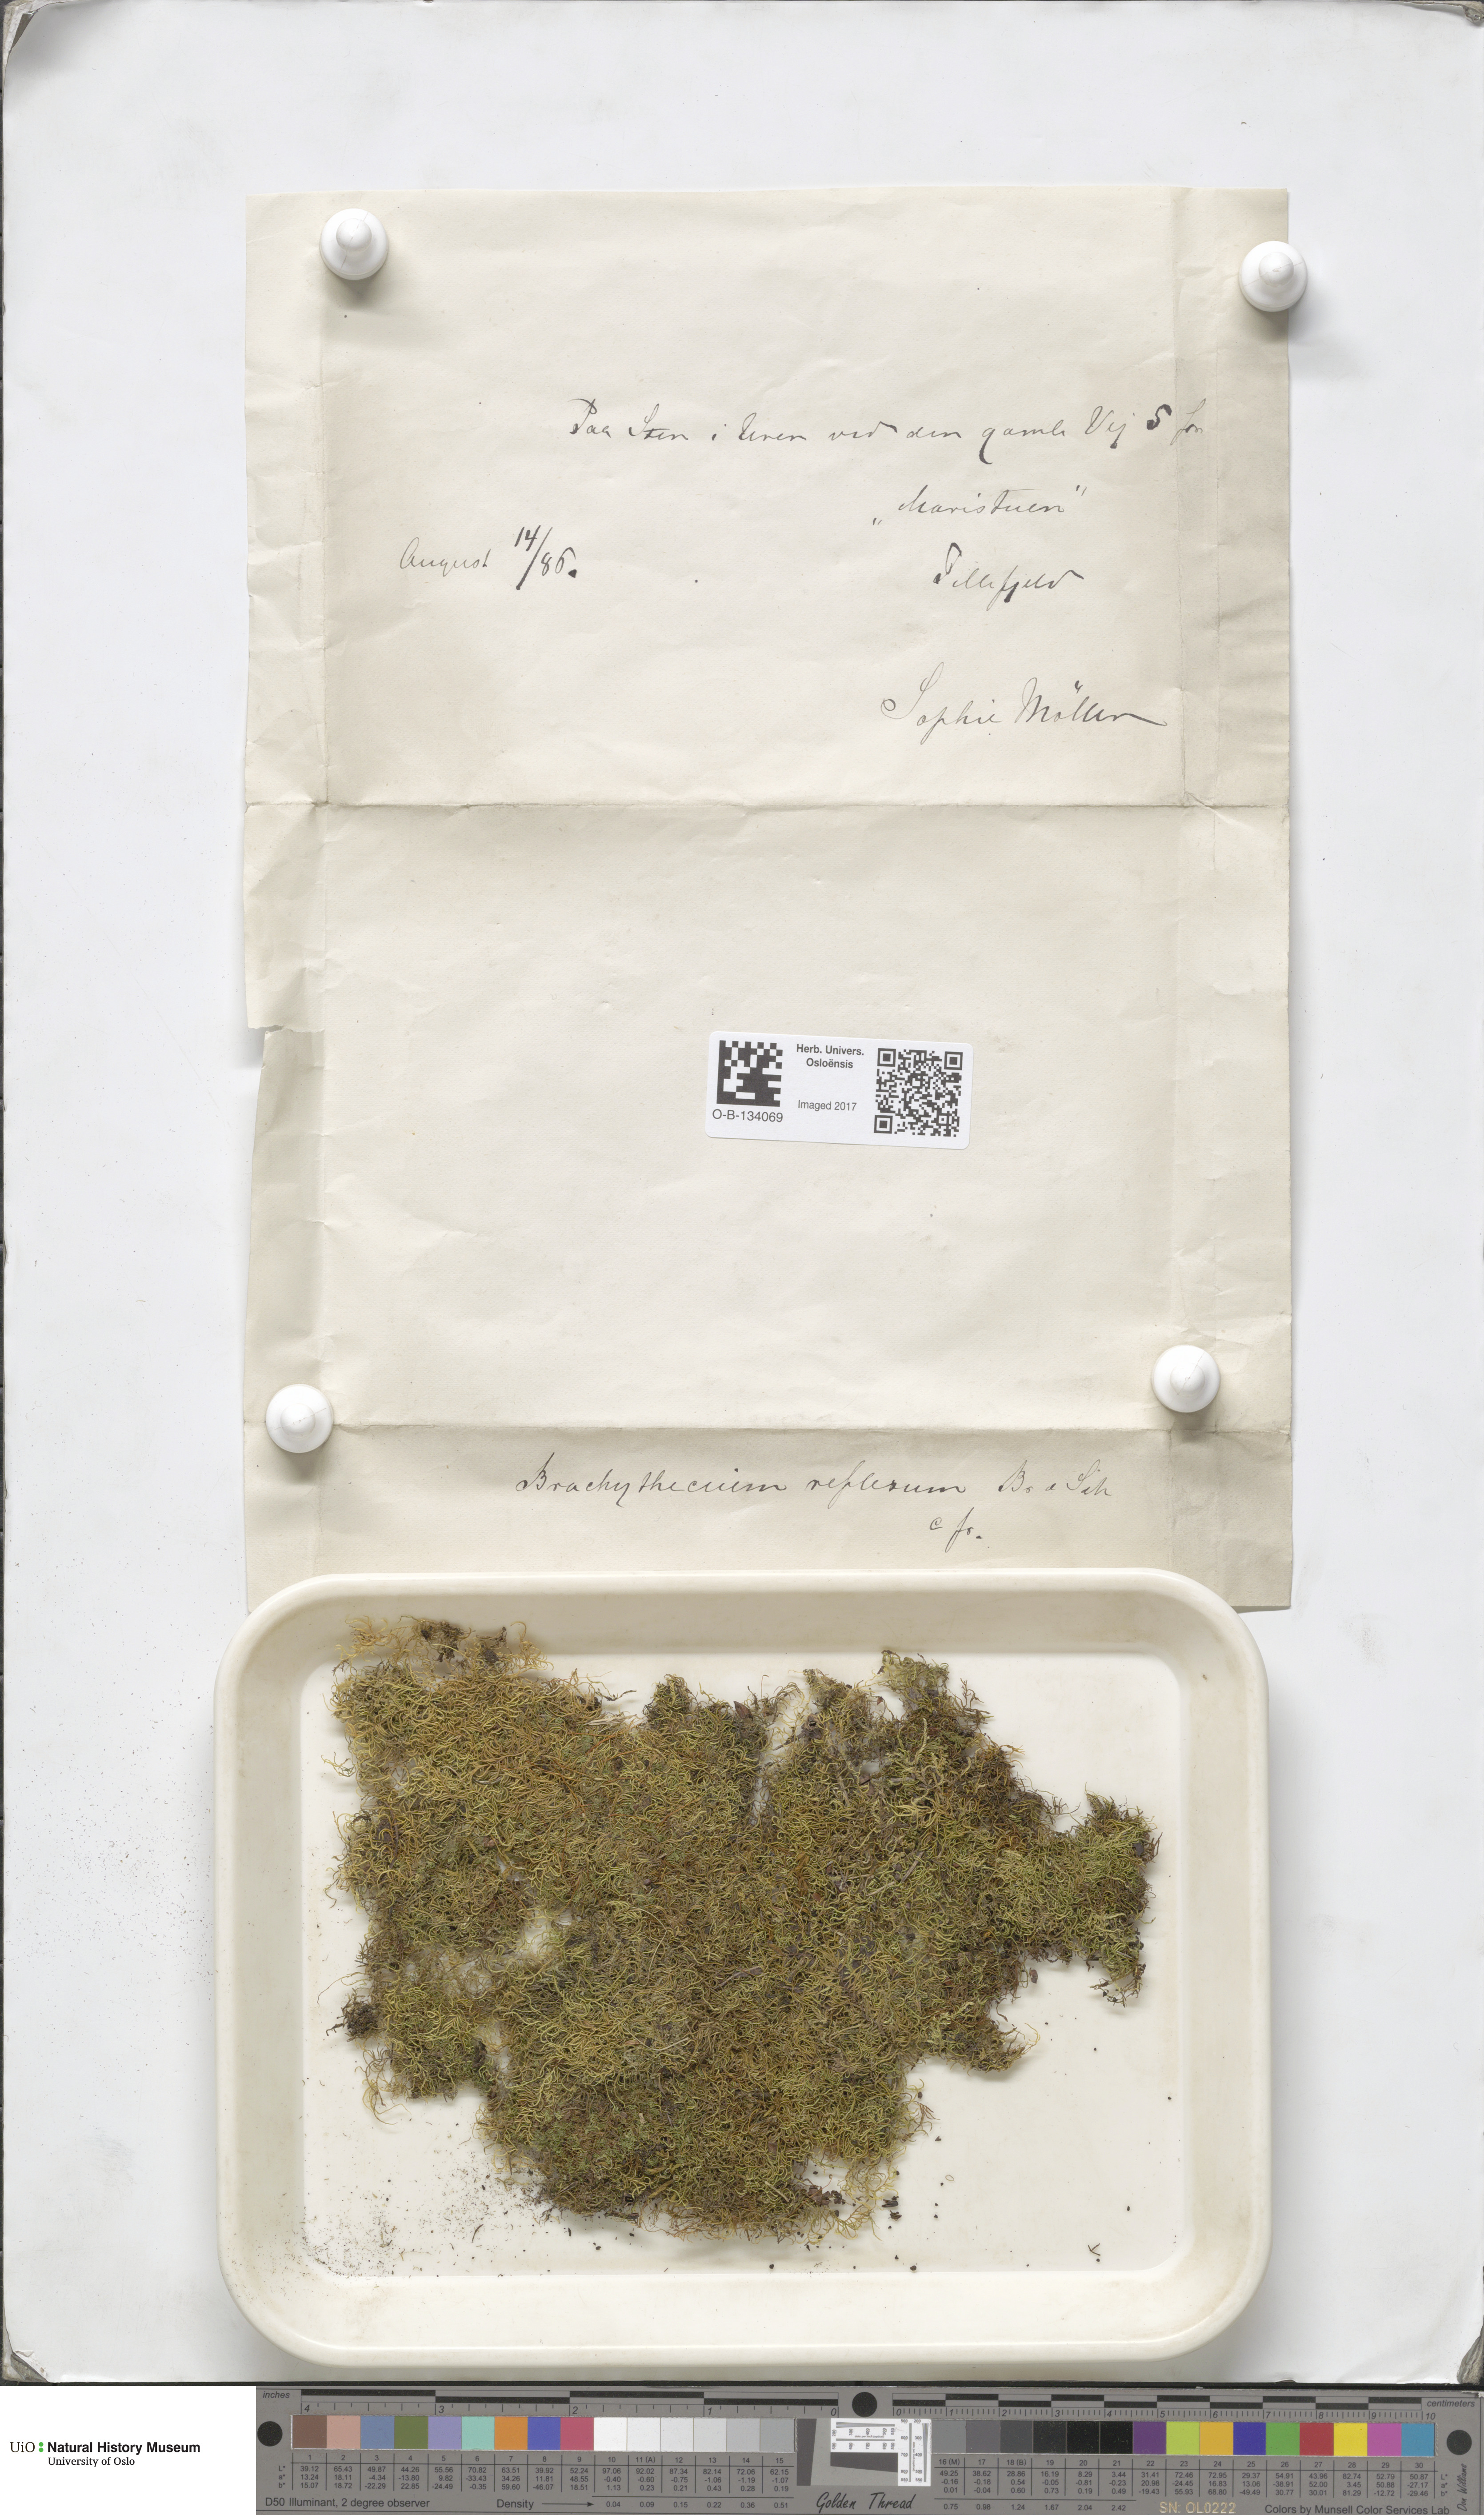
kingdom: Plantae
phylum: Bryophyta
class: Bryopsida
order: Hypnales
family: Brachytheciaceae
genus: Sciuro-hypnum
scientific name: Sciuro-hypnum reflexum
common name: Reflexed feather-moss
